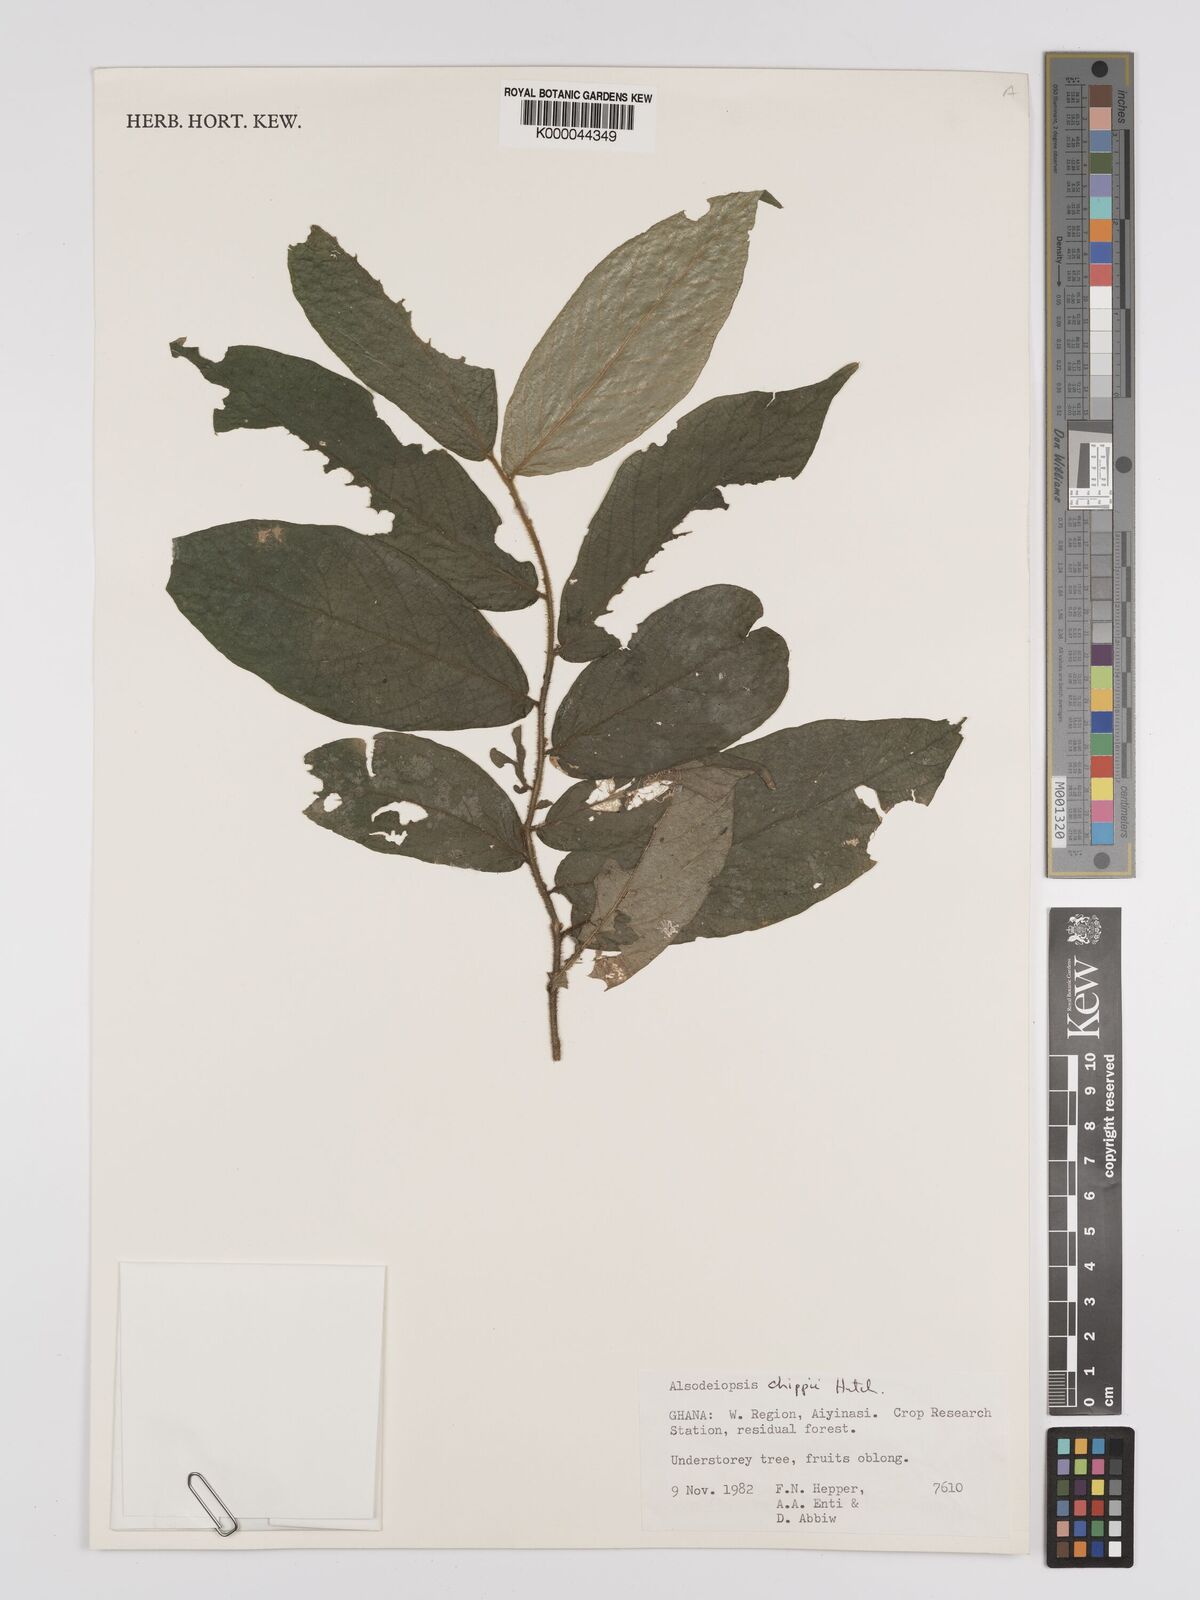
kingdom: Plantae
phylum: Tracheophyta
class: Magnoliopsida
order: Icacinales
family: Icacinaceae
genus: Alsodeiopsis
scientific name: Alsodeiopsis chippii
